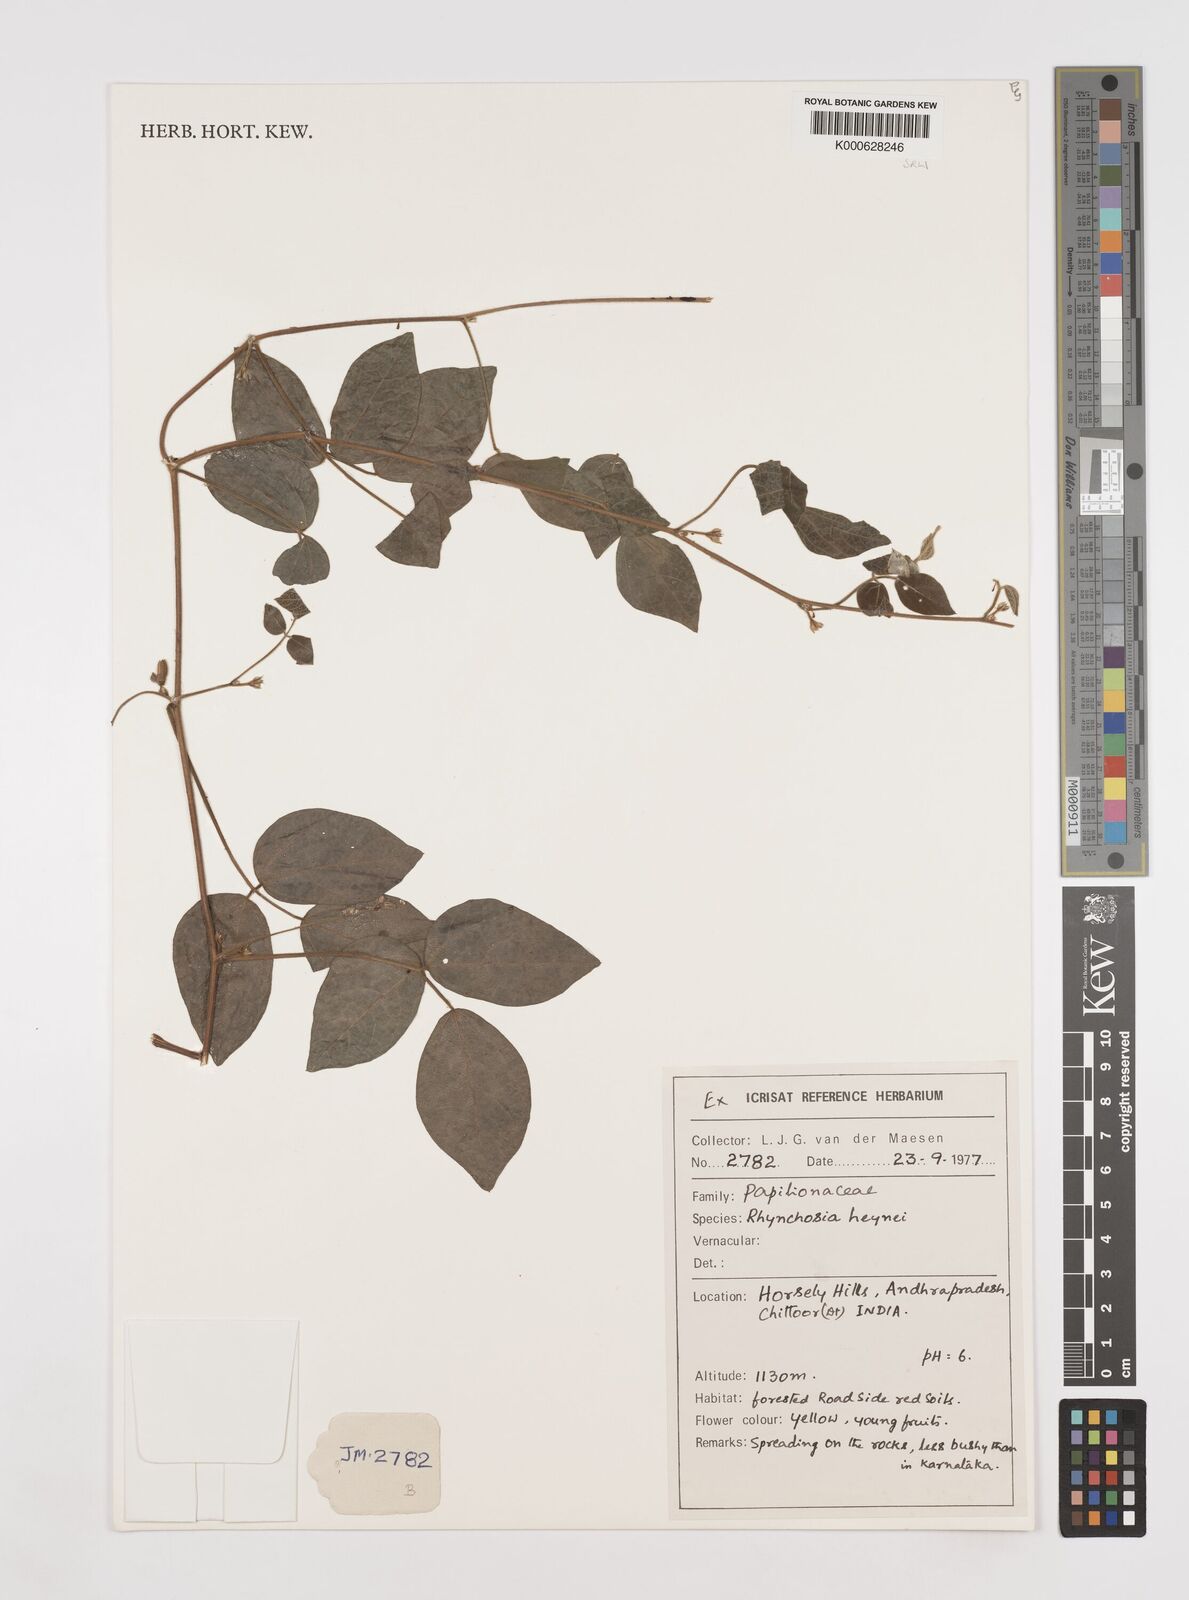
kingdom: Plantae
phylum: Tracheophyta
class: Magnoliopsida
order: Fabales
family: Fabaceae
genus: Rhynchosia
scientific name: Rhynchosia heynei
